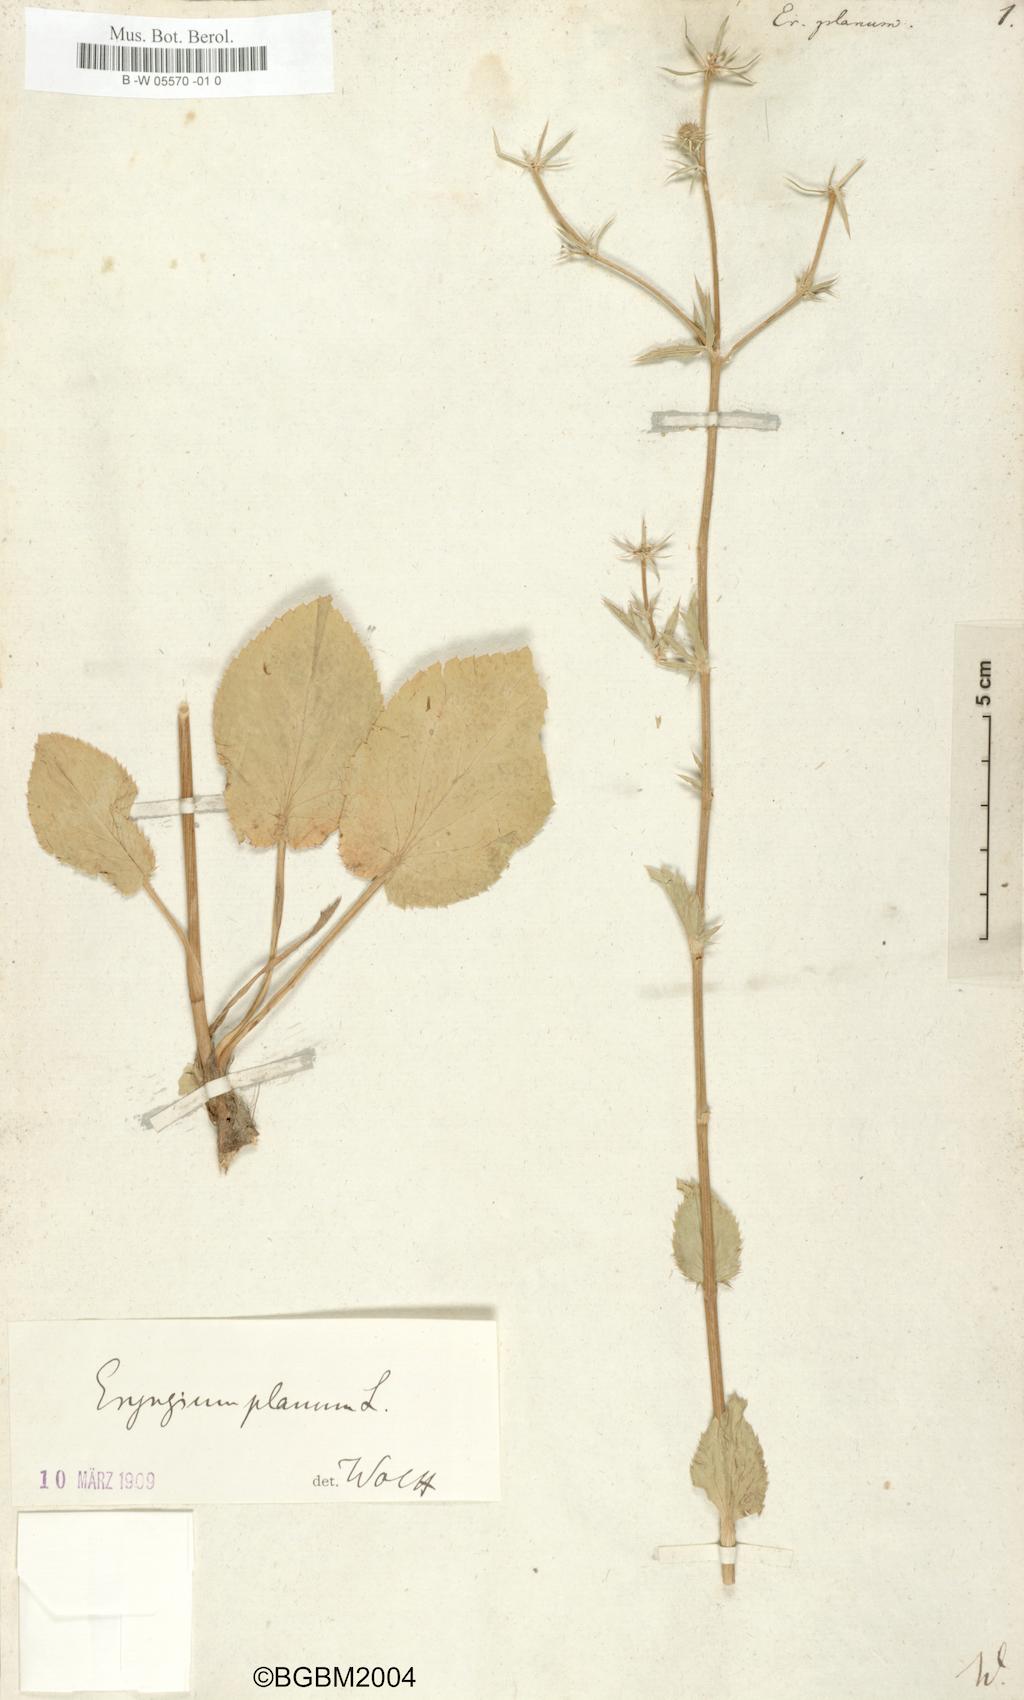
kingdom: Plantae
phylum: Tracheophyta
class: Magnoliopsida
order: Apiales
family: Apiaceae
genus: Eryngium
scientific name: Eryngium planum
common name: Blue eryngo
